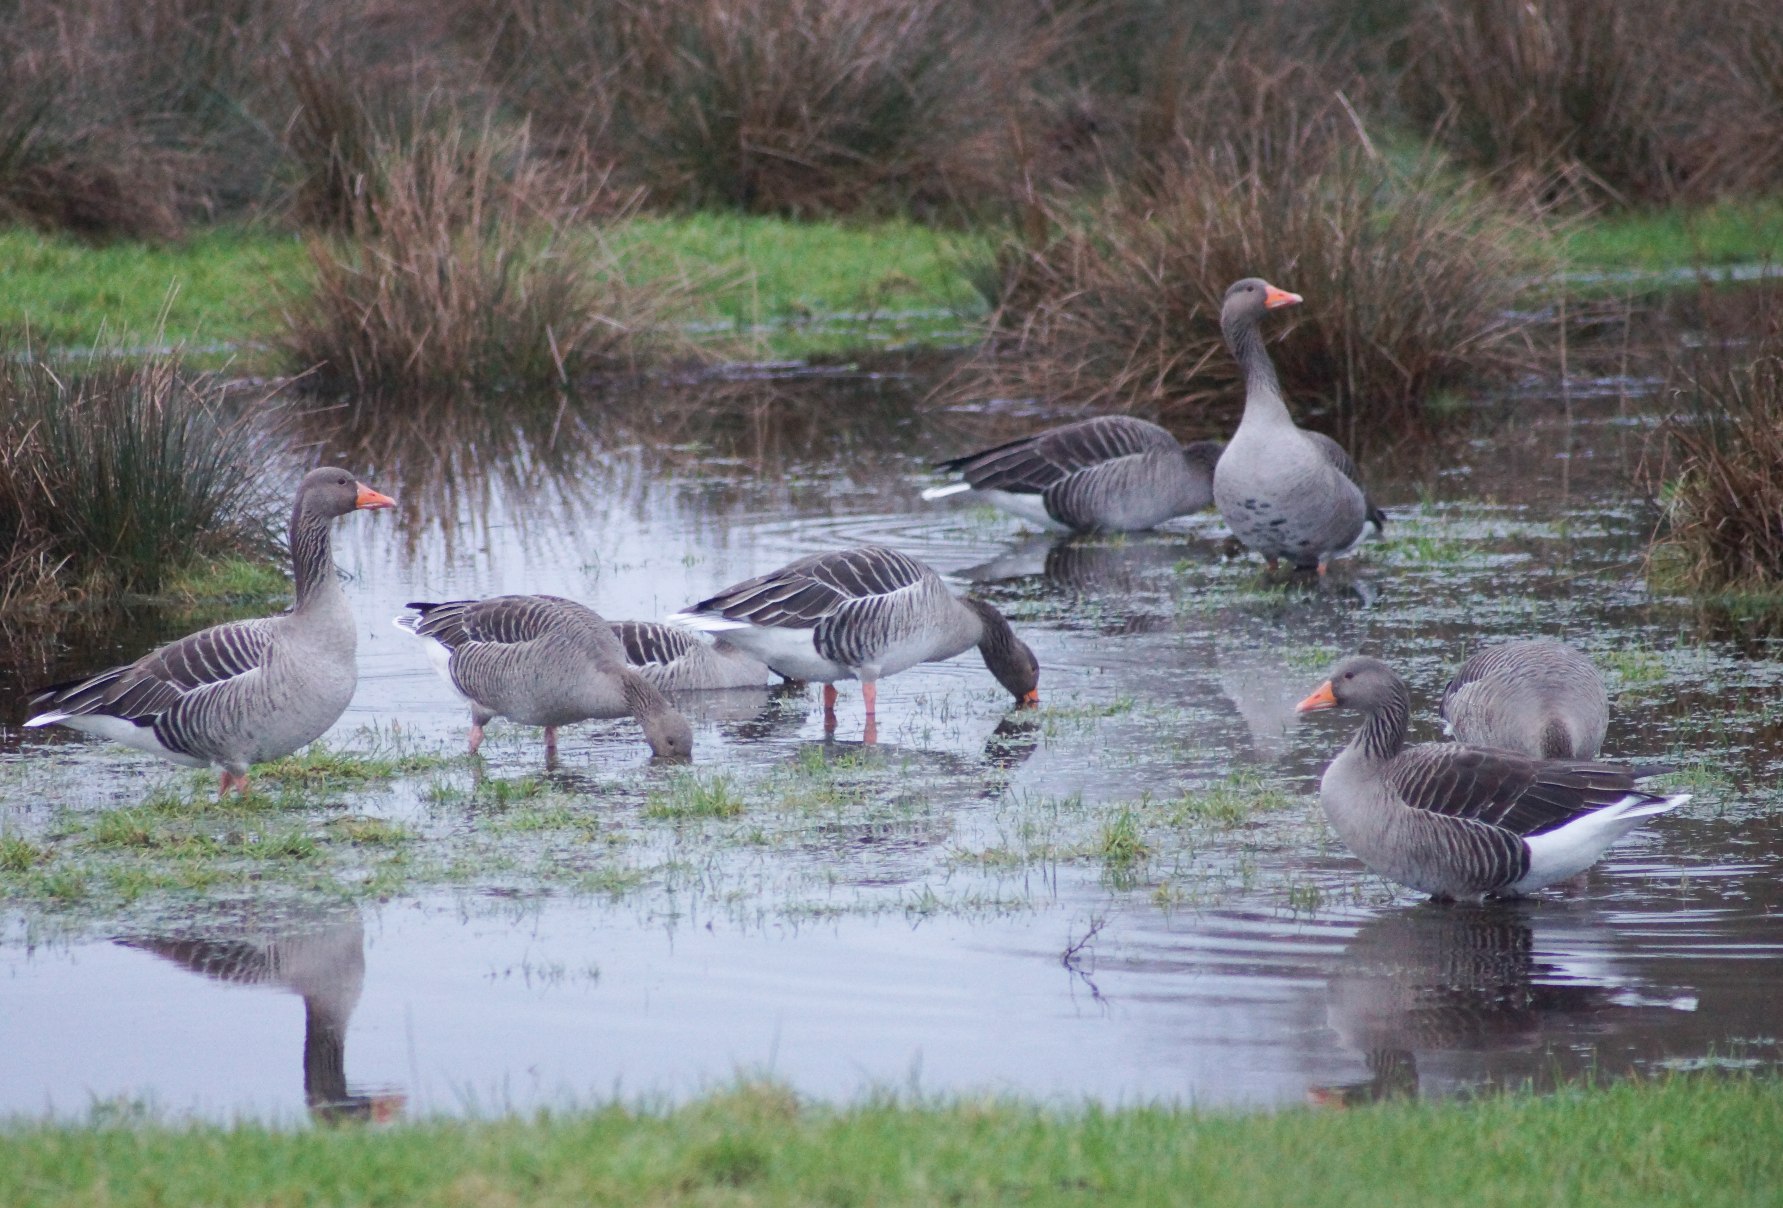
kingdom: Animalia
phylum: Chordata
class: Aves
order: Anseriformes
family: Anatidae
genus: Anser
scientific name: Anser anser
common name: Grågås
